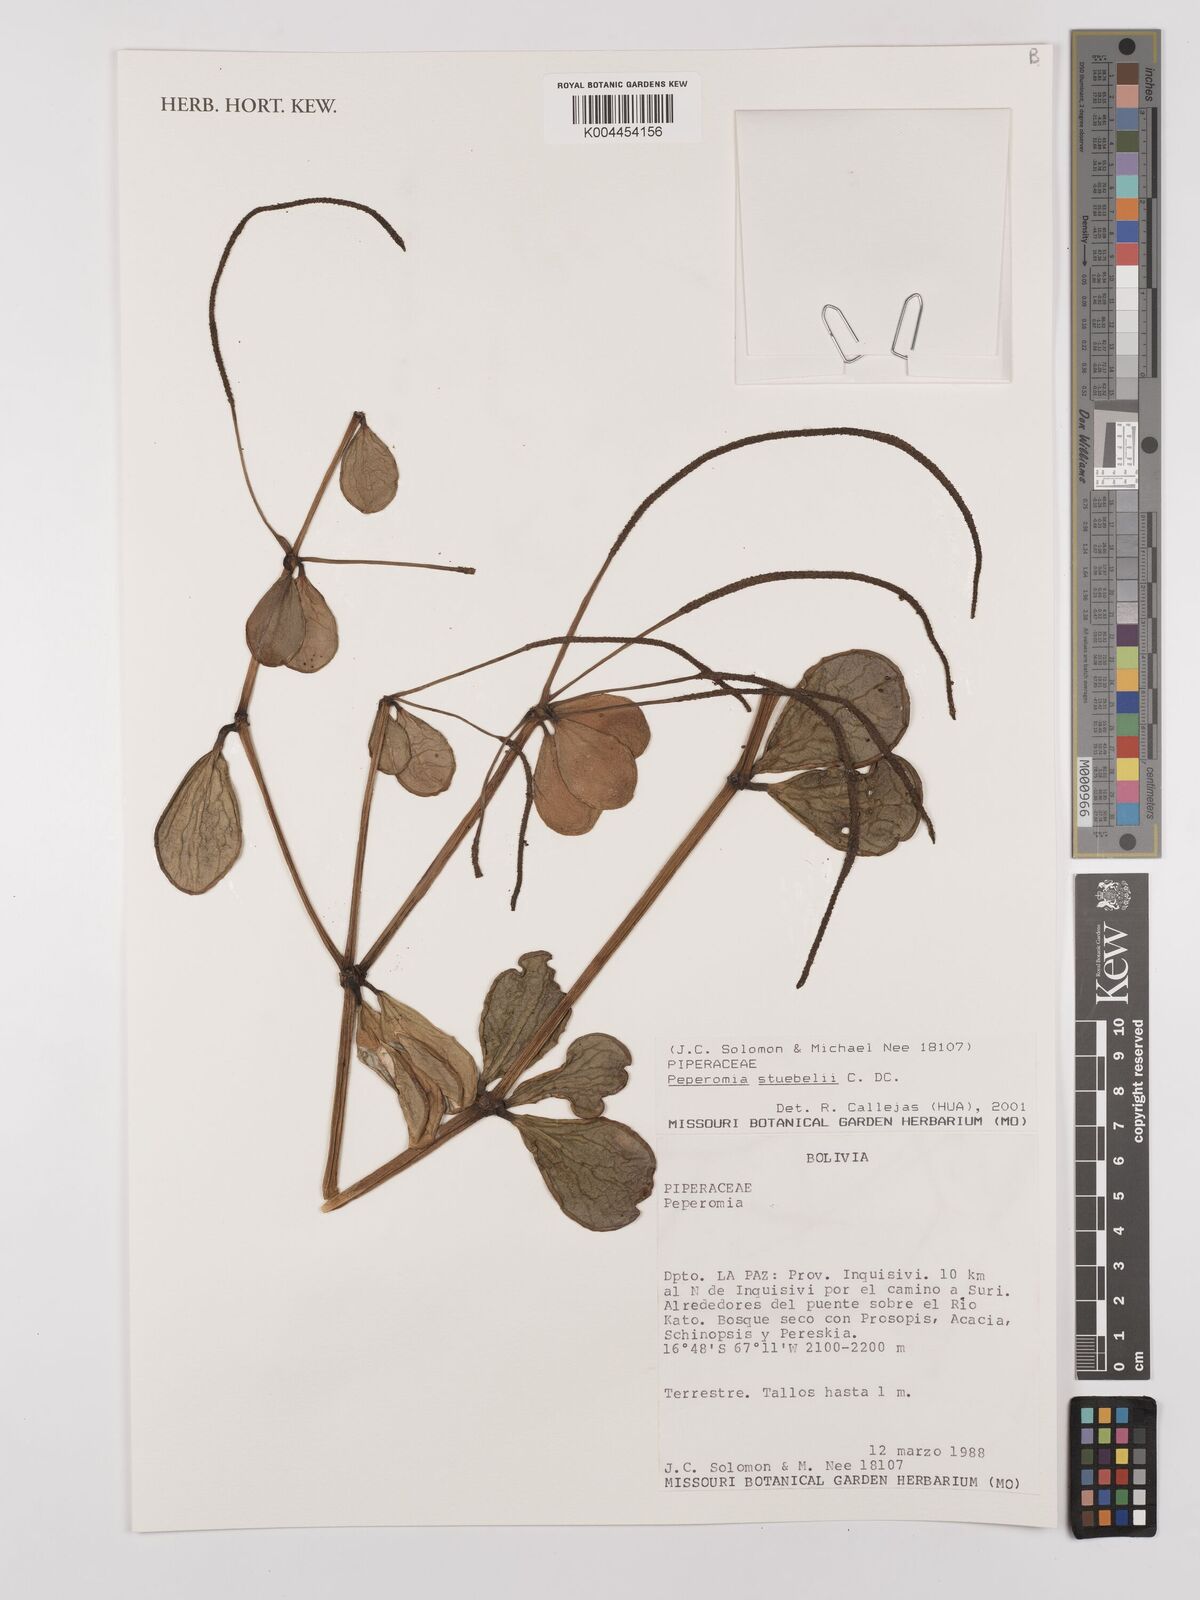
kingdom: Plantae
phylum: Tracheophyta
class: Magnoliopsida
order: Piperales
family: Piperaceae
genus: Peperomia
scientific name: Peperomia stuebelii
